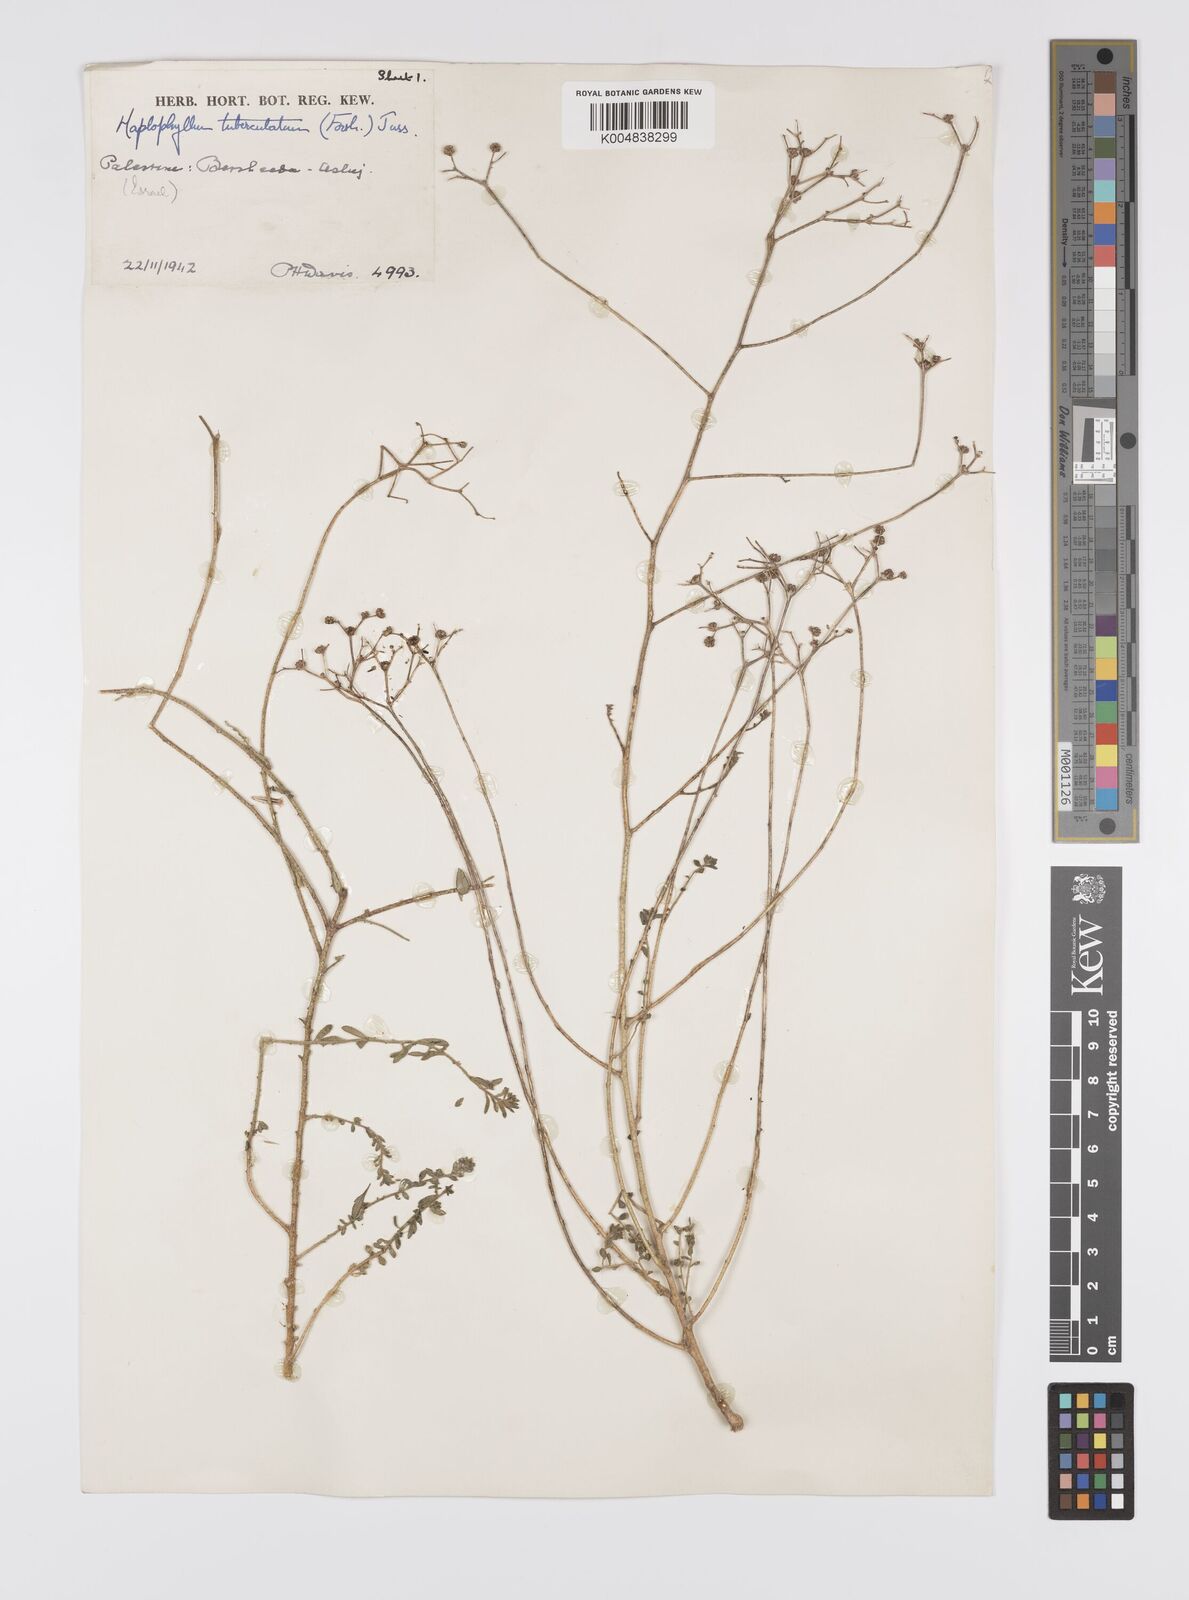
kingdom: Plantae
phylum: Tracheophyta
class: Magnoliopsida
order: Sapindales
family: Rutaceae
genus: Haplophyllum
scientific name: Haplophyllum tuberculatum
